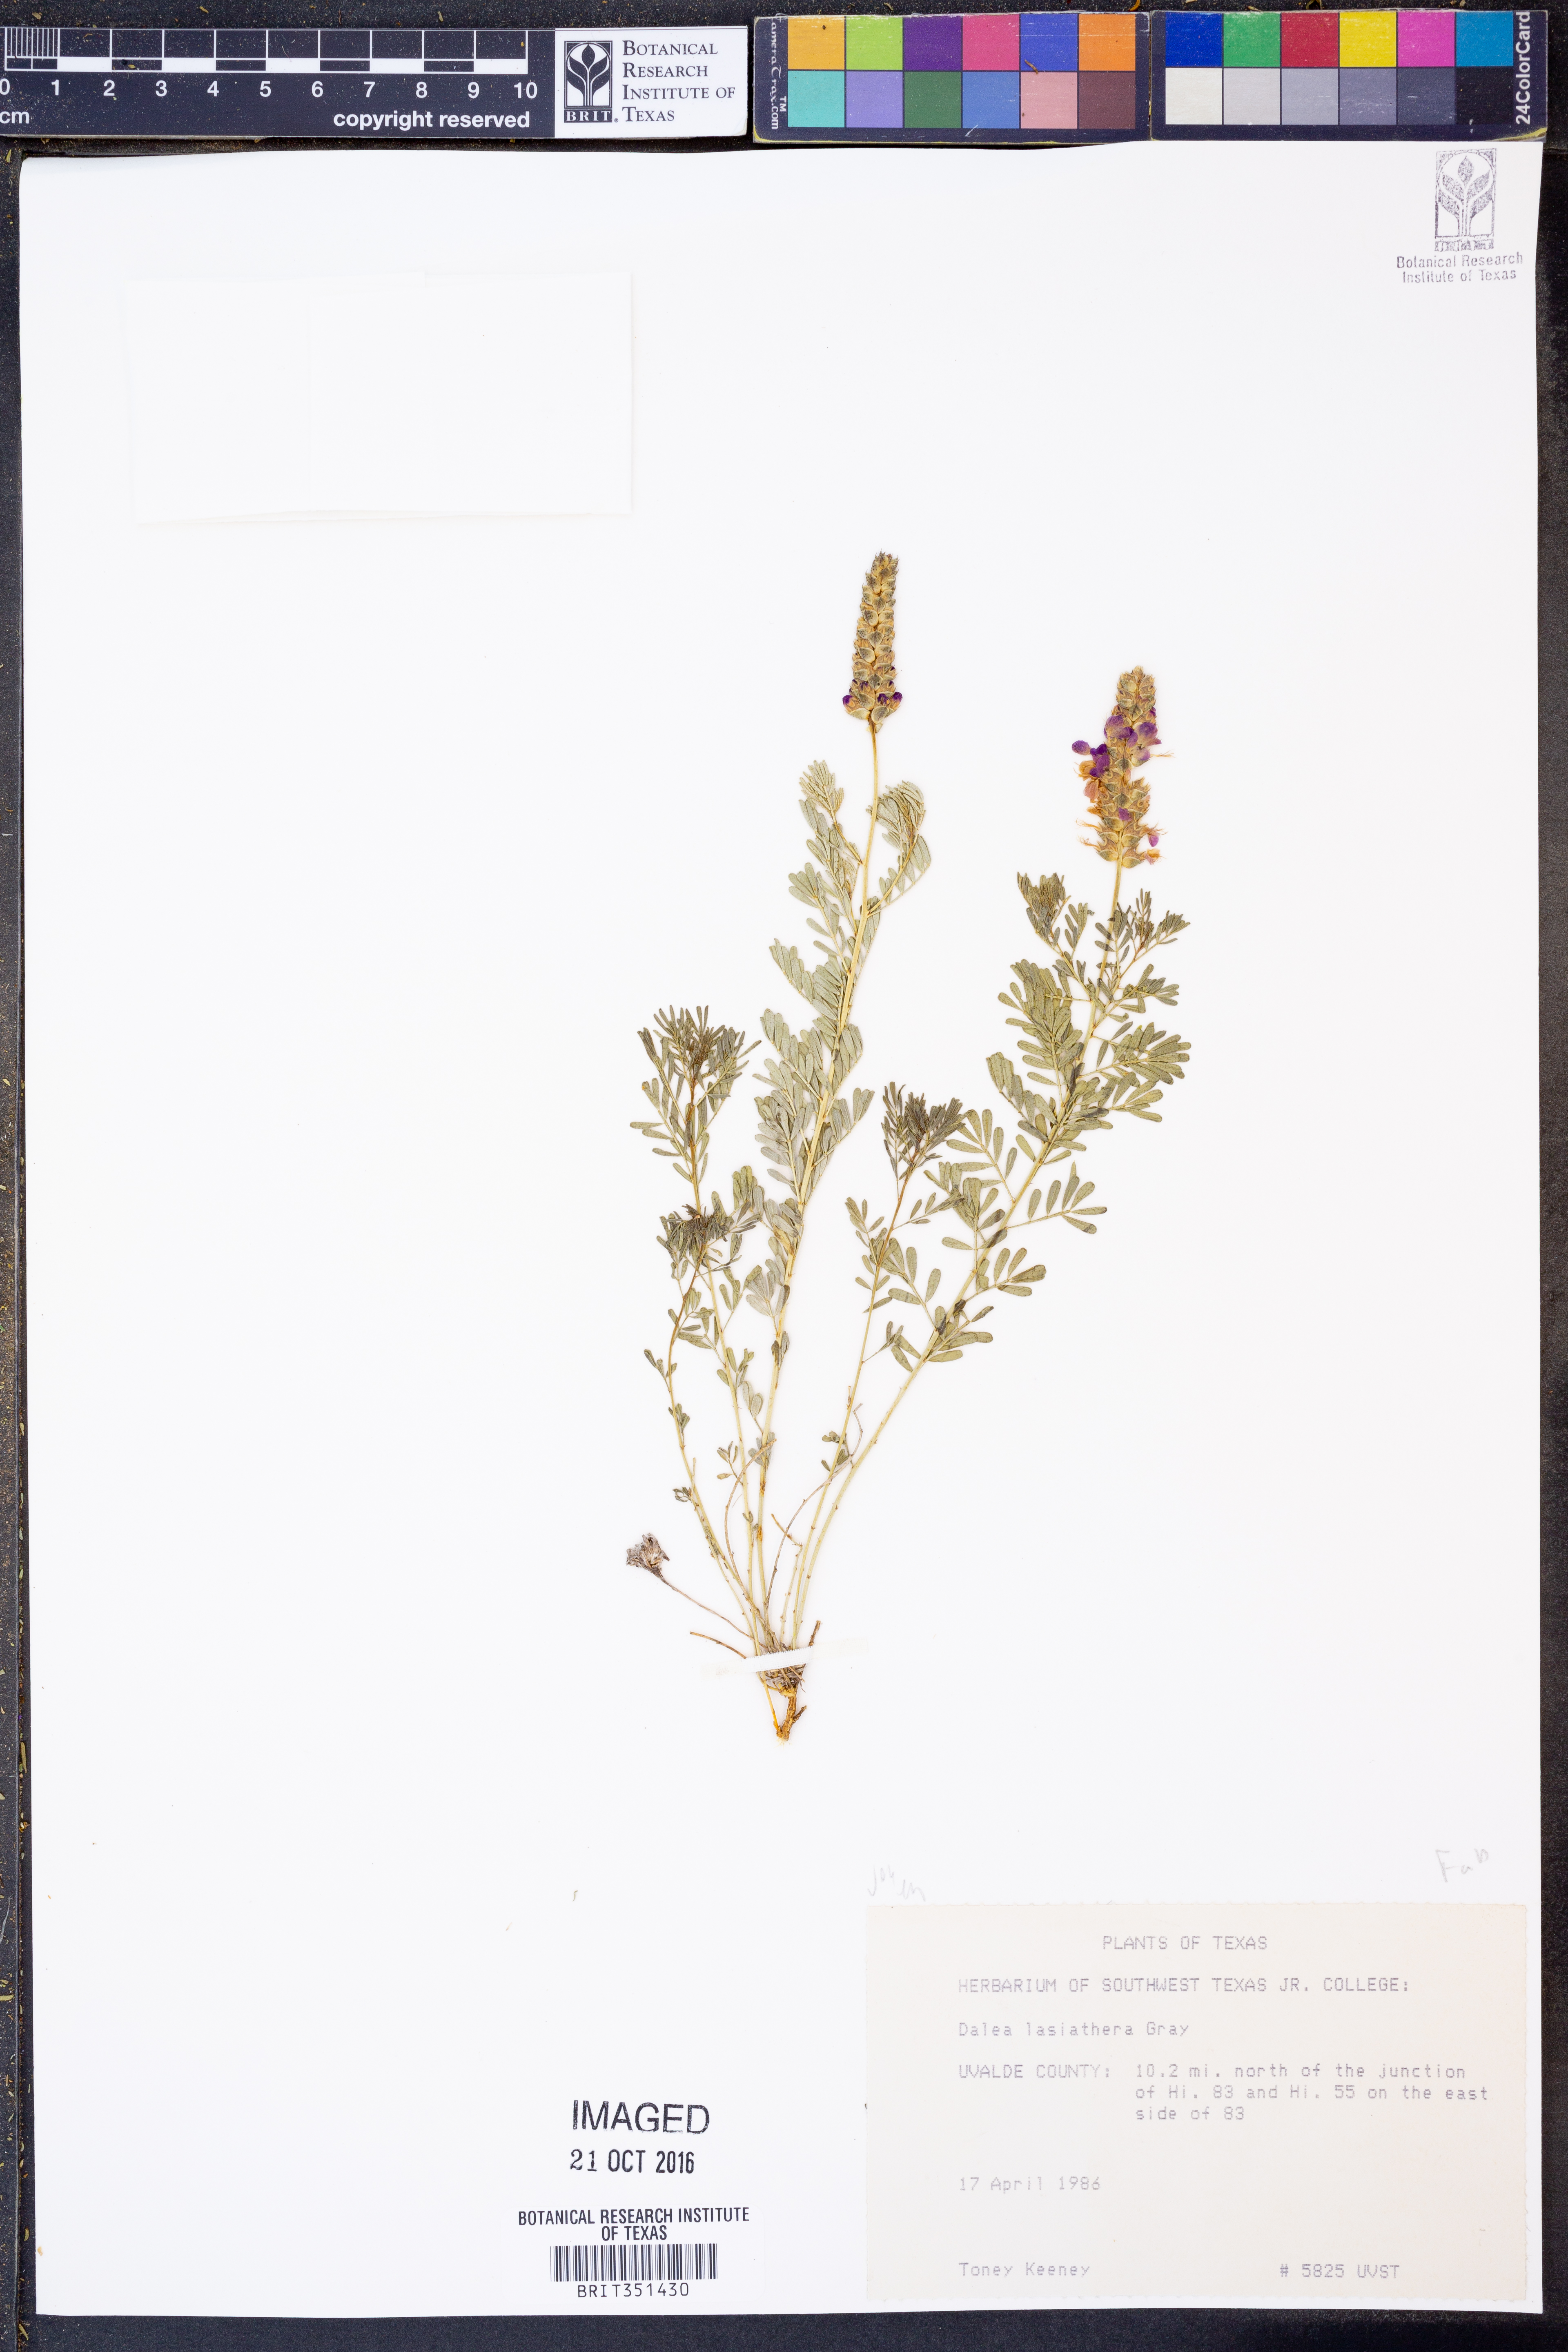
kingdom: Plantae
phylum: Tracheophyta
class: Magnoliopsida
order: Fabales
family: Fabaceae
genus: Dalea
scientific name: Dalea lasiathera
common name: Purple prairie-clover
